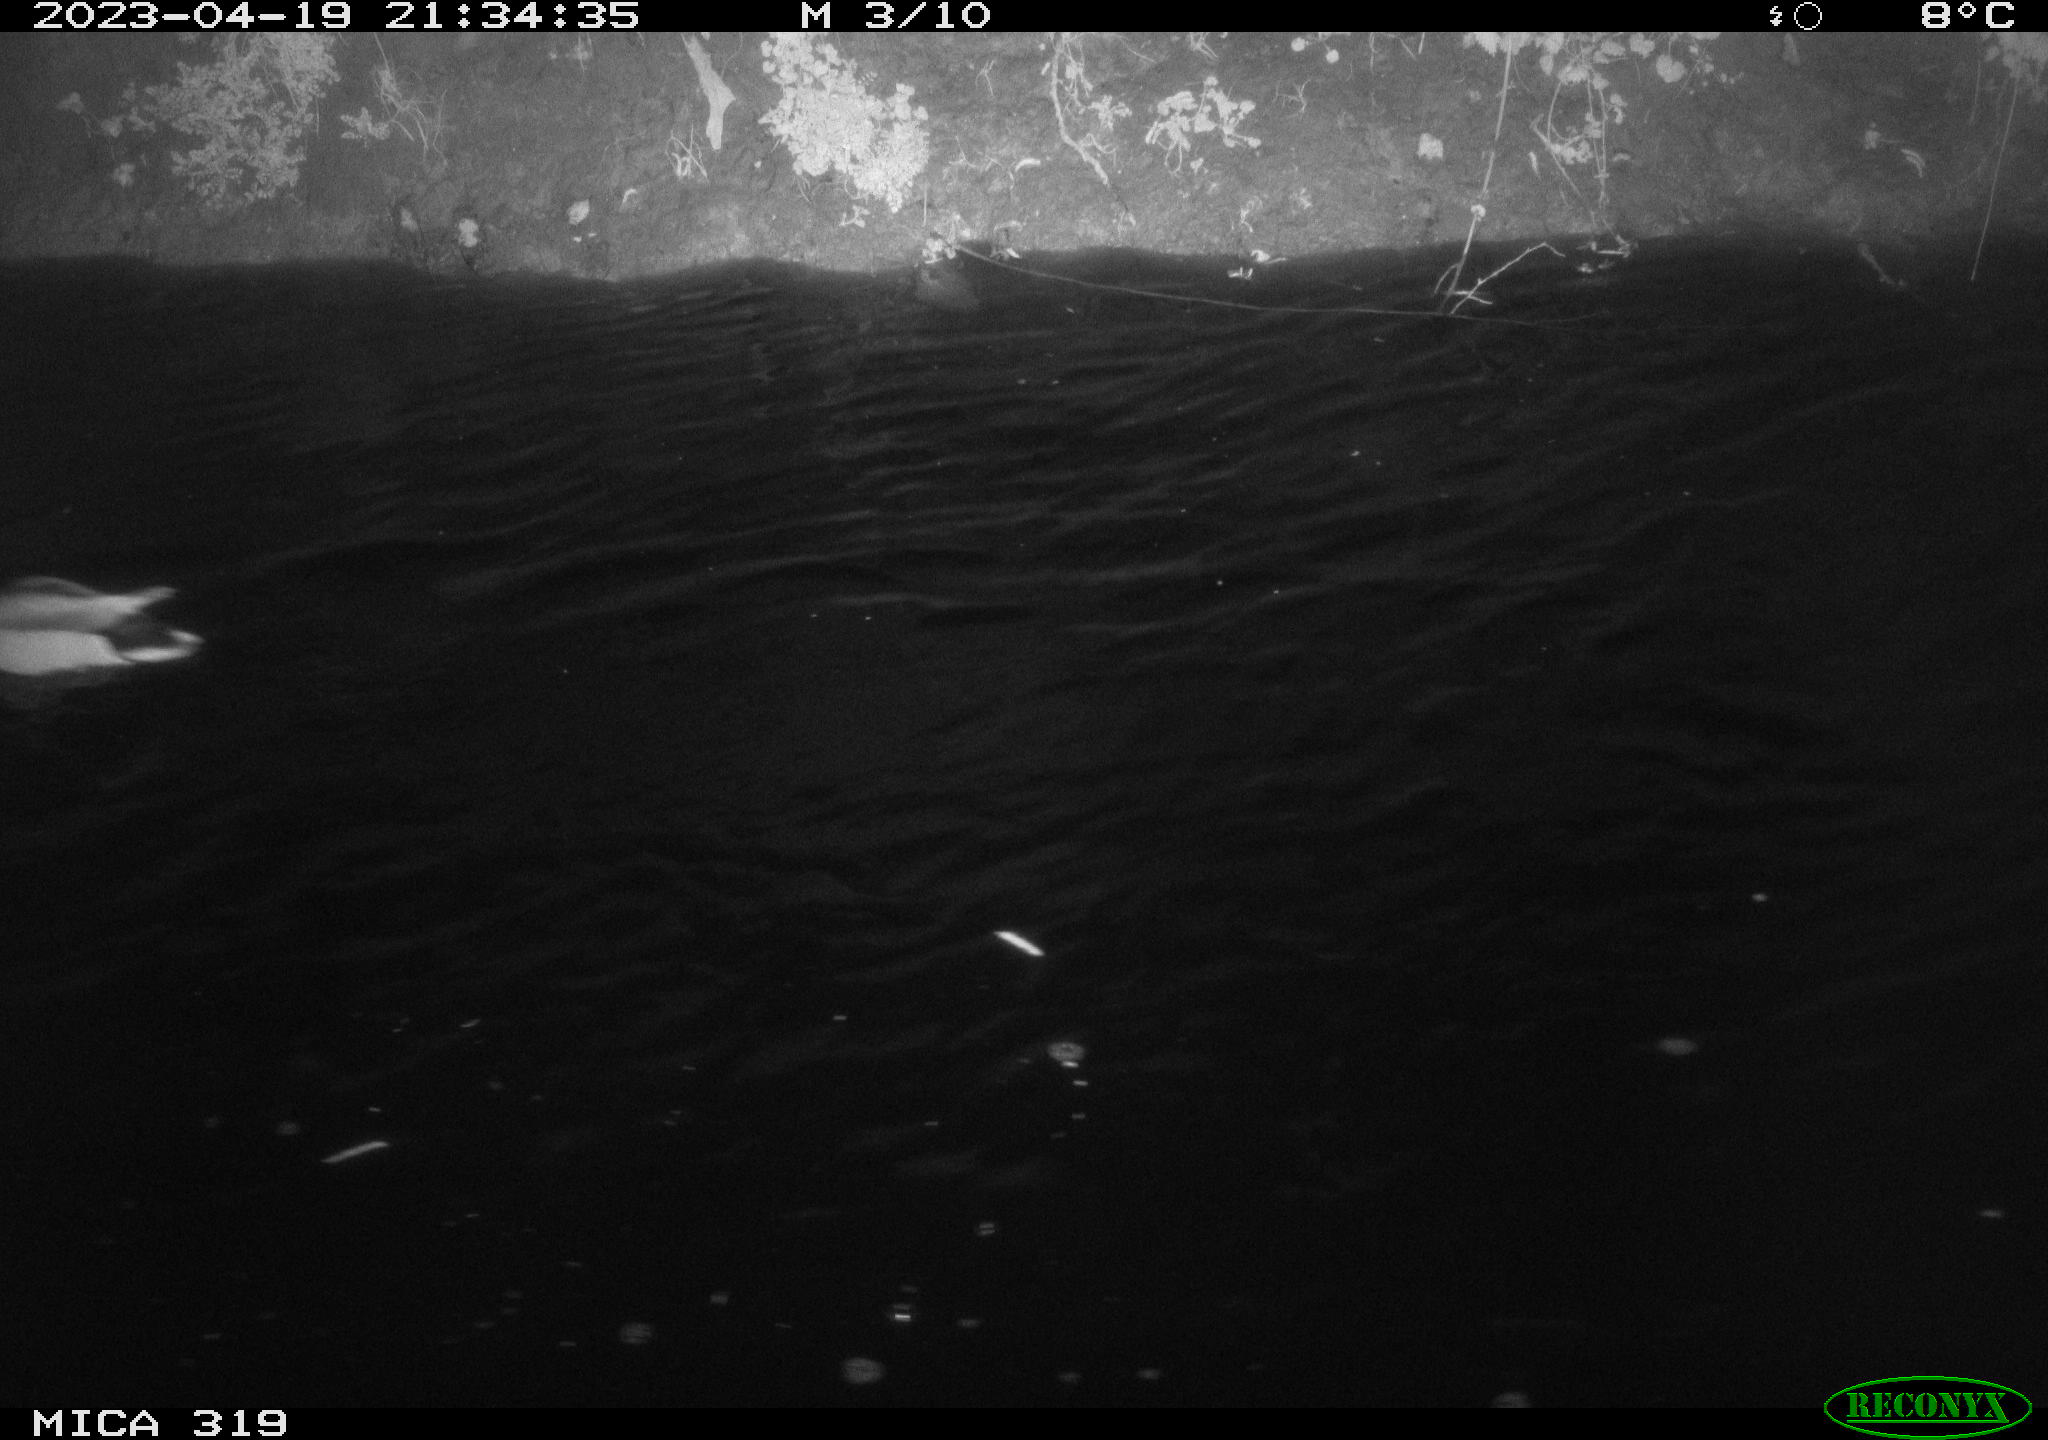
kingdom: Animalia
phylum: Chordata
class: Aves
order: Anseriformes
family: Anatidae
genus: Anas
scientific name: Anas
